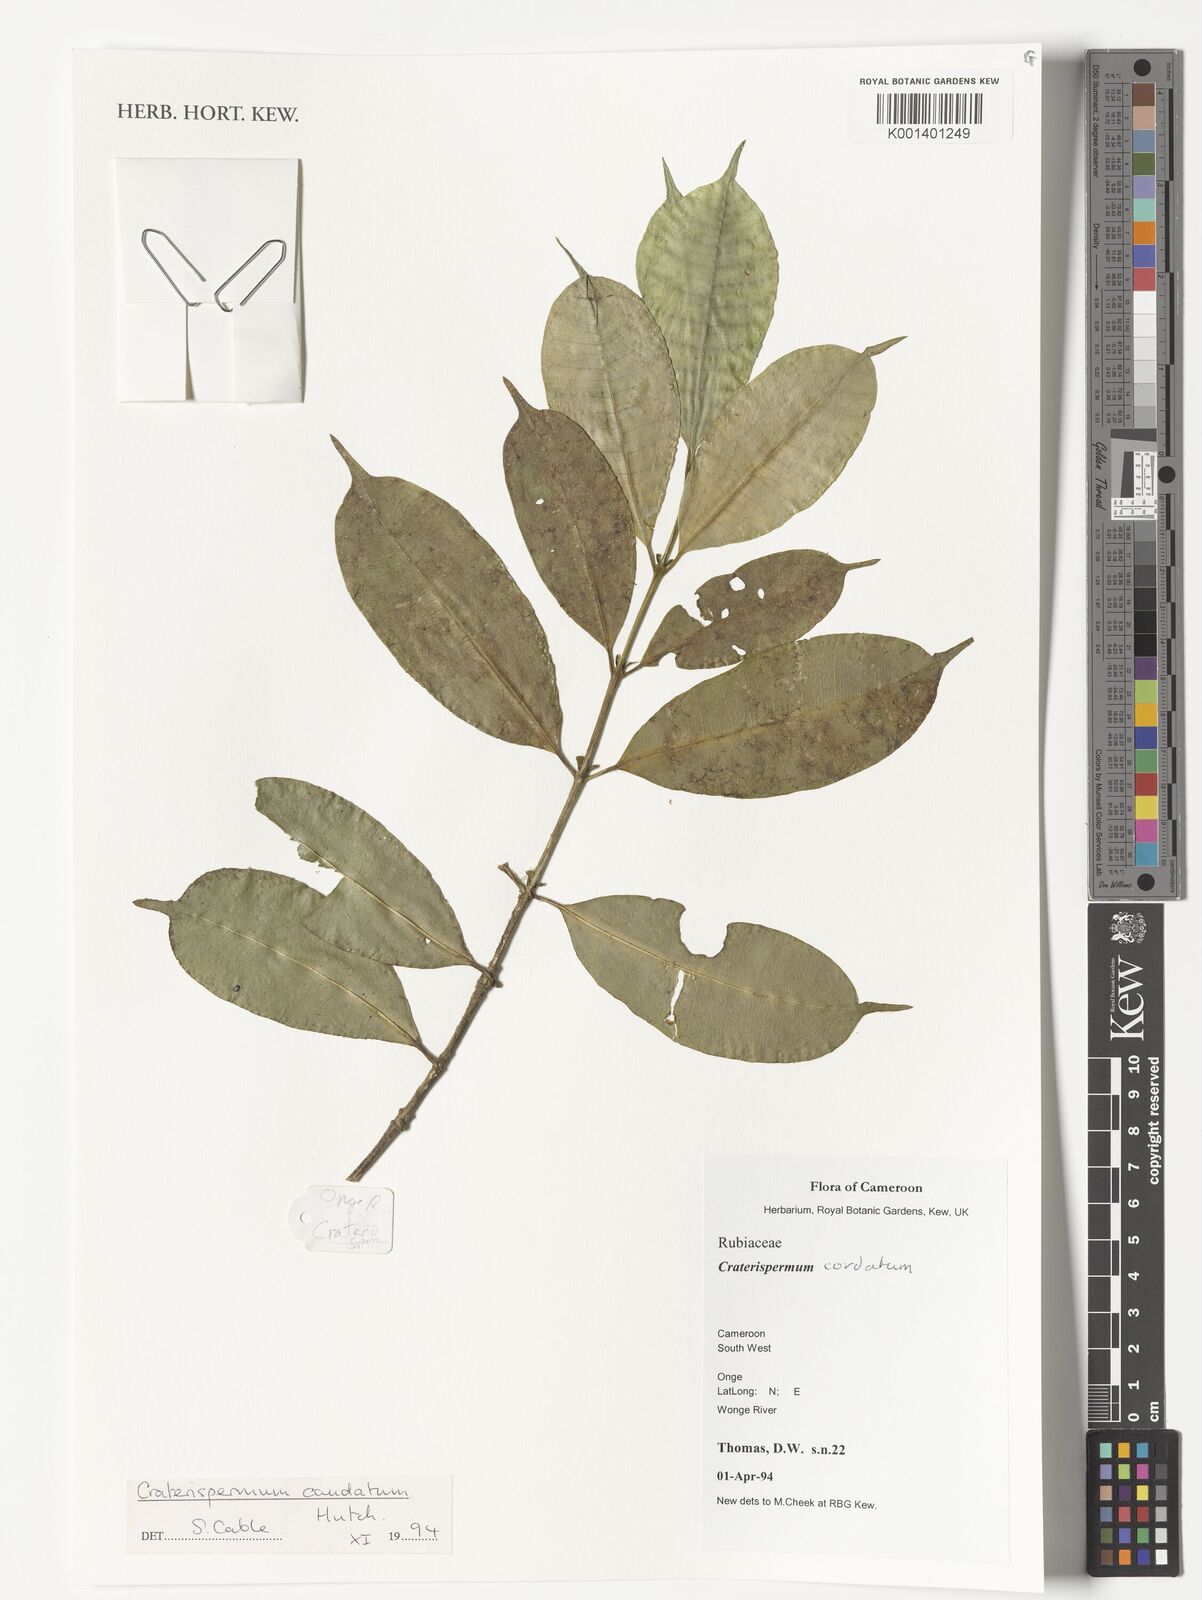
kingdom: Plantae
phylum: Tracheophyta
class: Magnoliopsida
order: Gentianales
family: Rubiaceae
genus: Craterispermum
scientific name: Craterispermum
